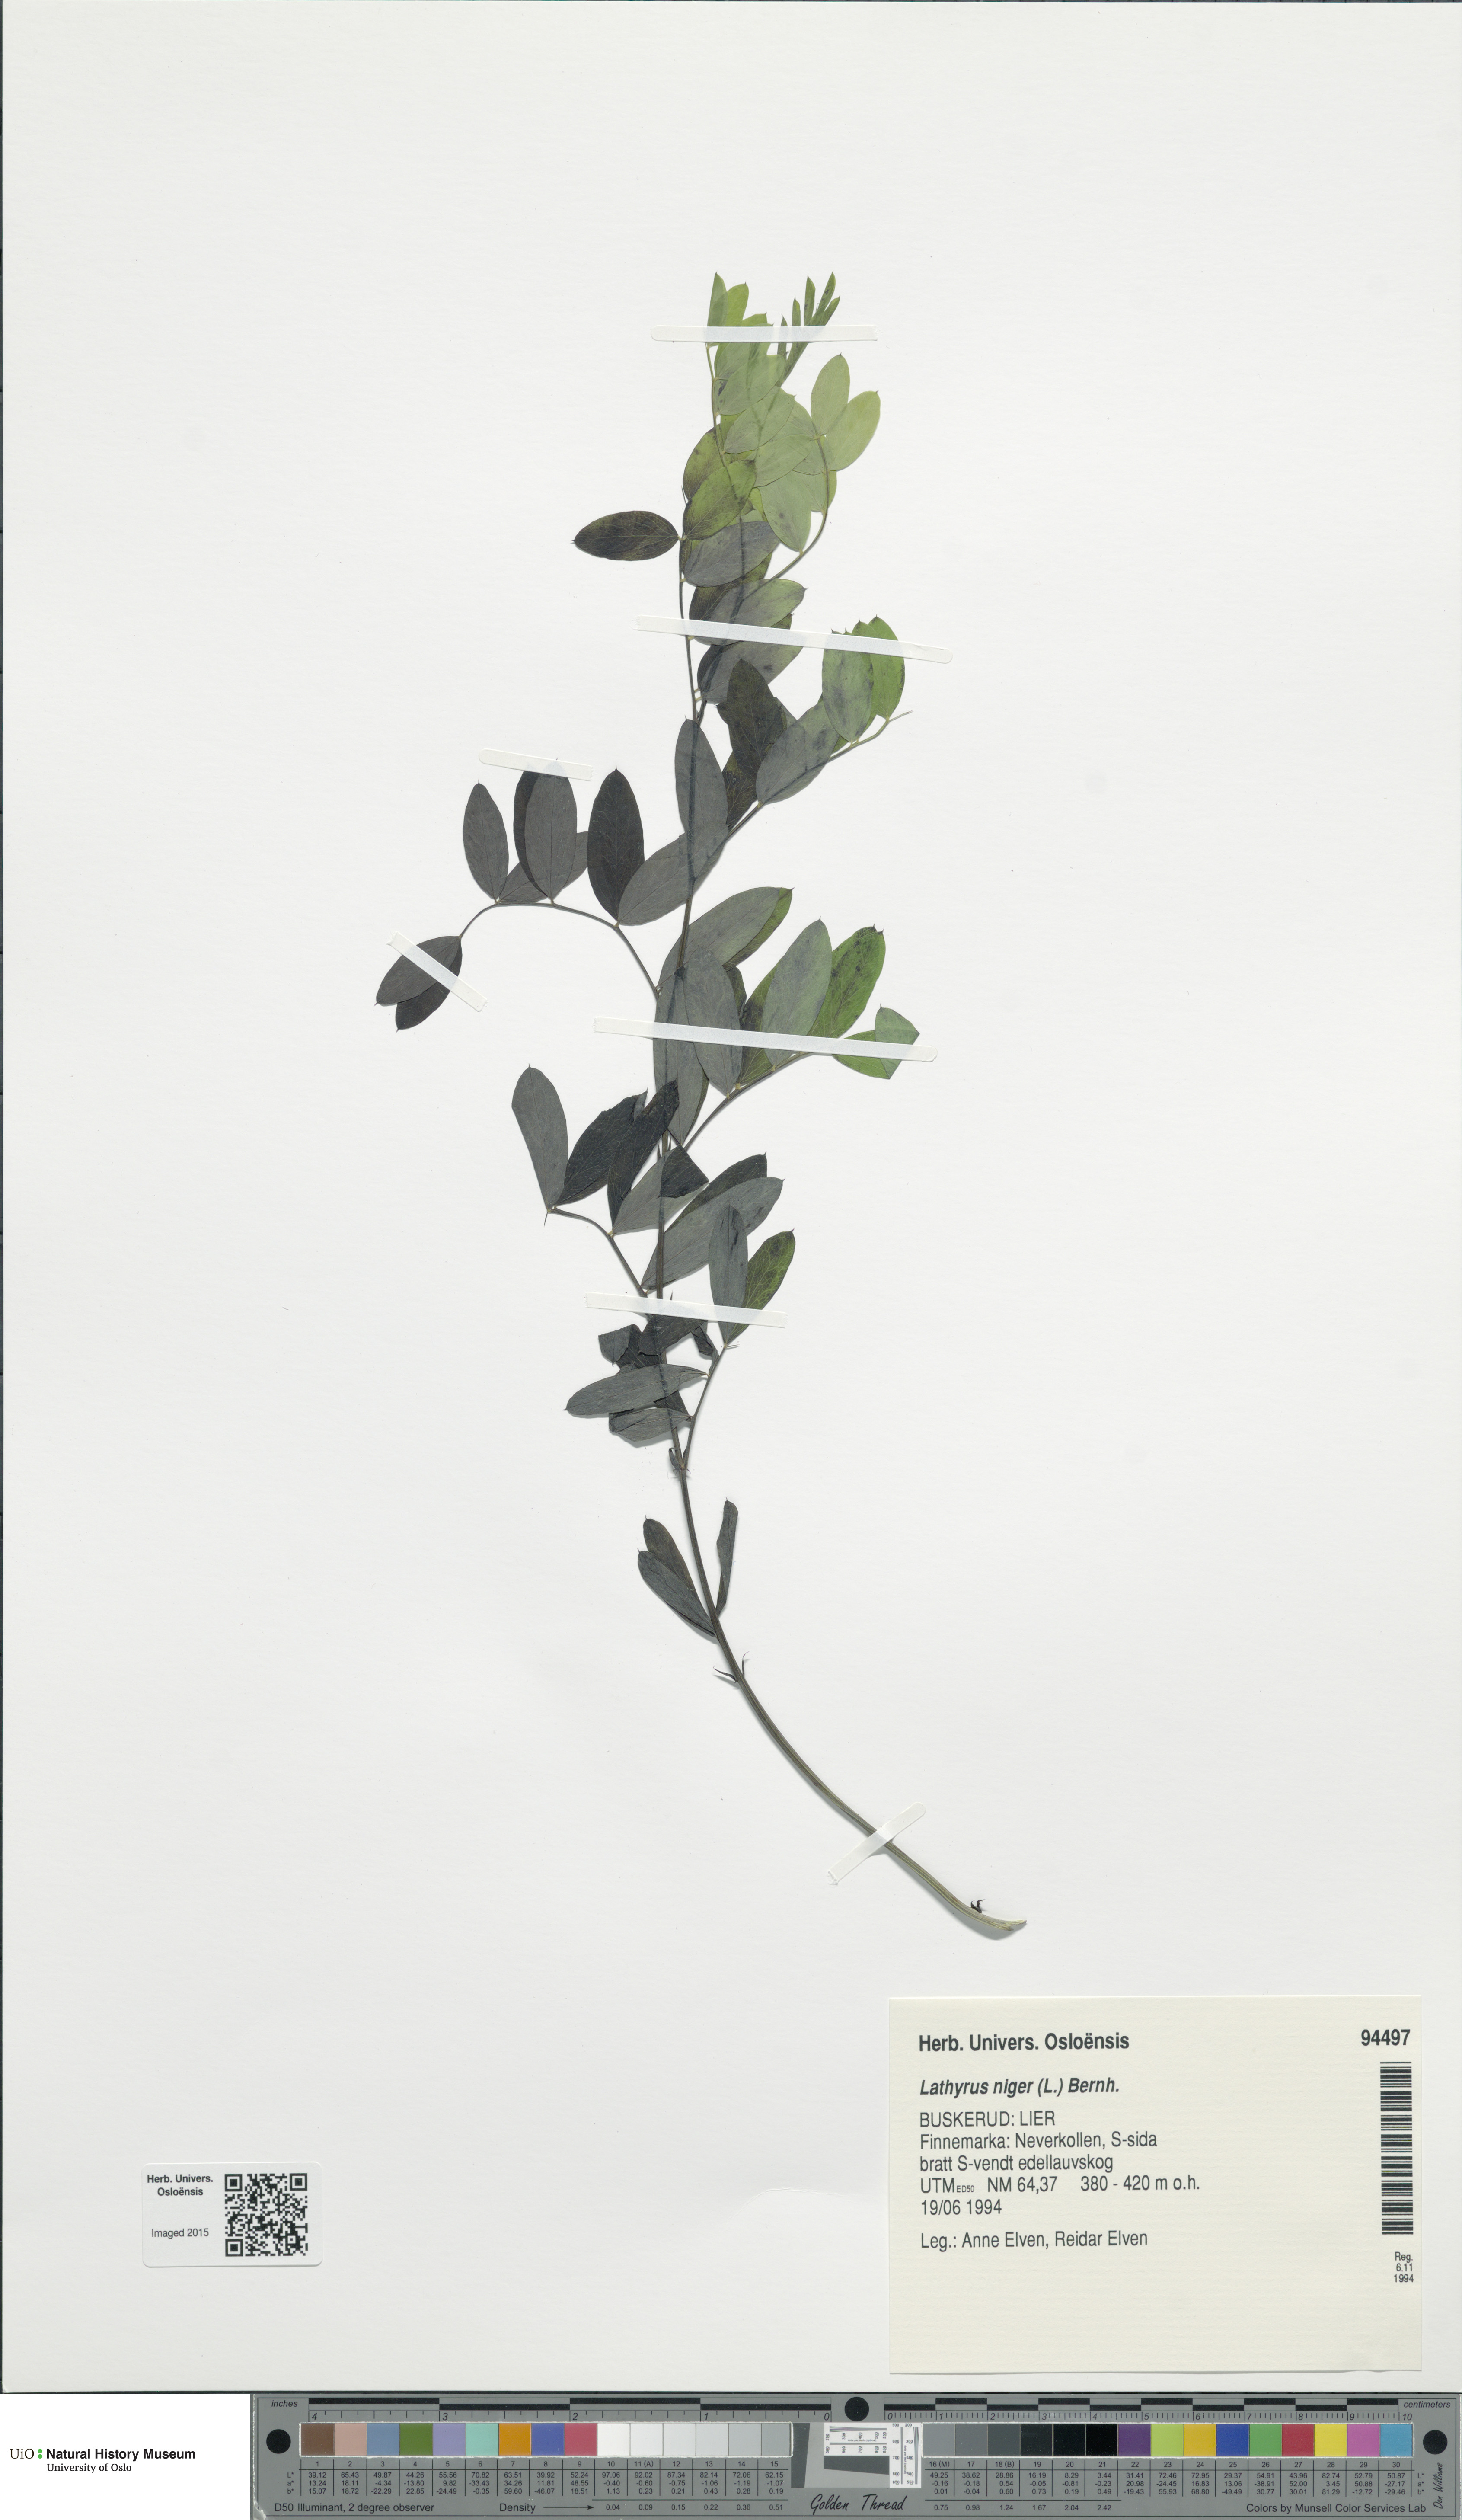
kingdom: Plantae
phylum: Tracheophyta
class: Magnoliopsida
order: Fabales
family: Fabaceae
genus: Lathyrus
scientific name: Lathyrus niger
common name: Black pea
